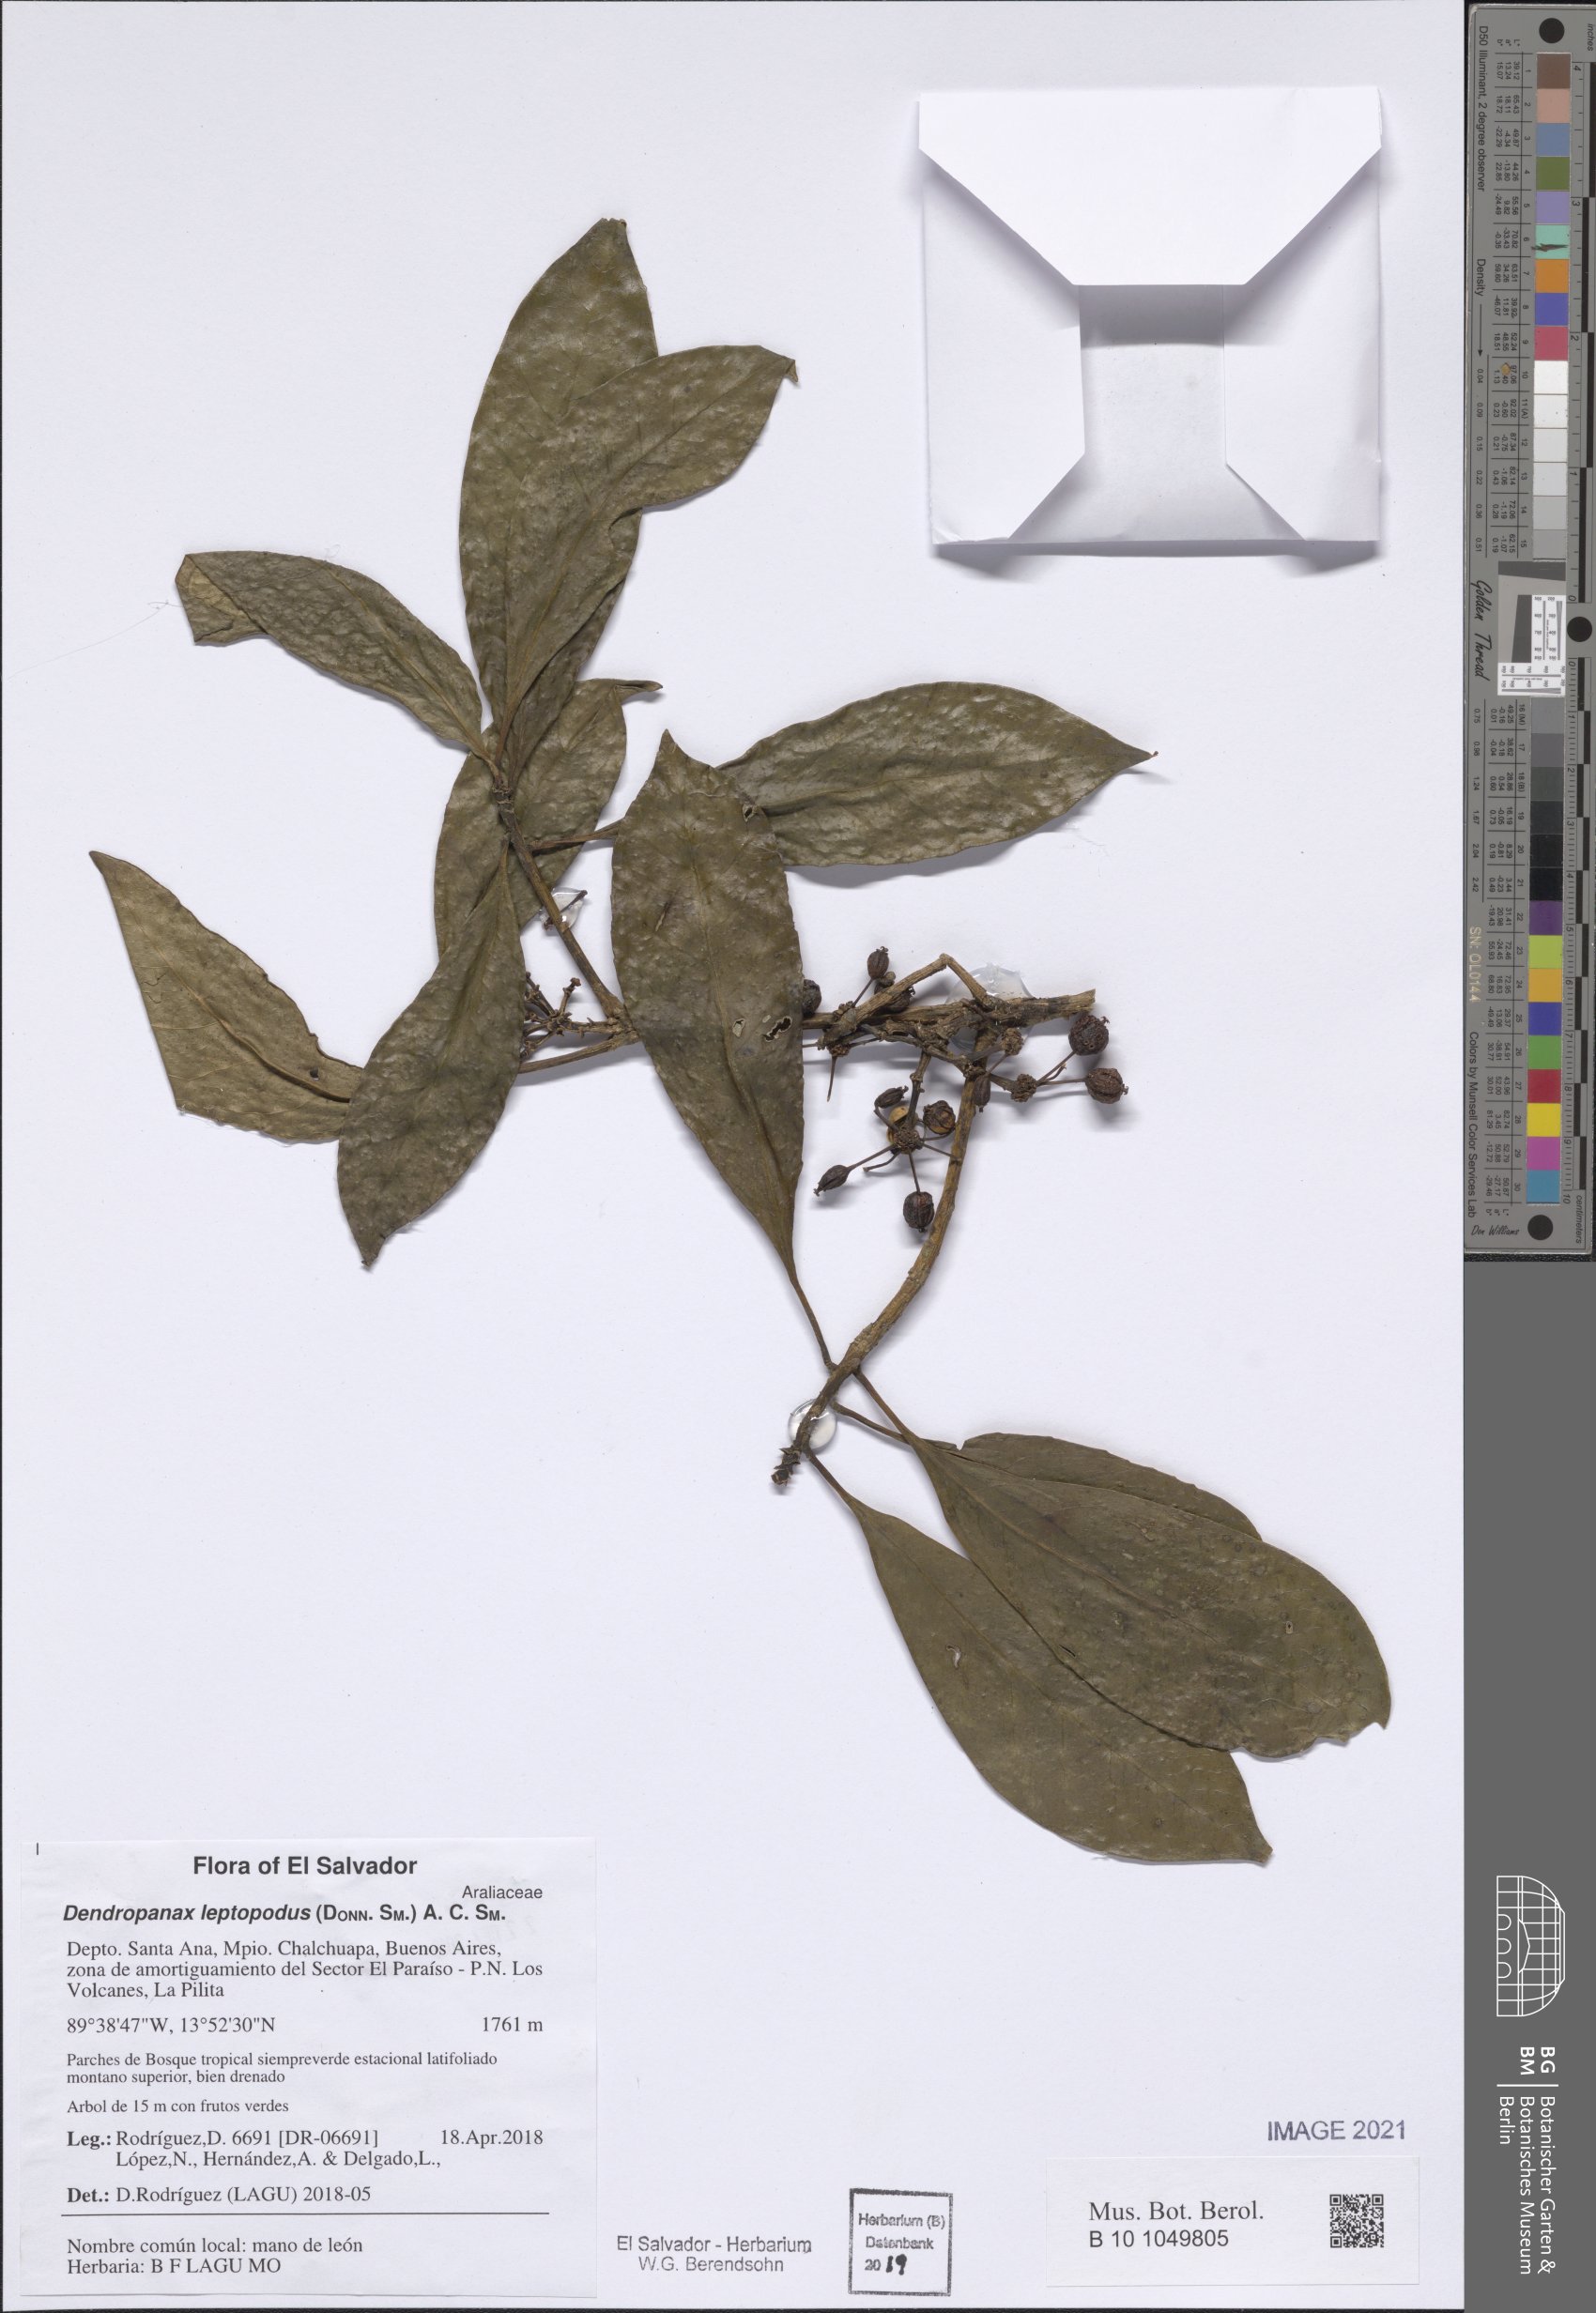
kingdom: Plantae
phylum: Tracheophyta
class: Magnoliopsida
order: Apiales
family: Araliaceae
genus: Dendropanax
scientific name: Dendropanax leptopodus
